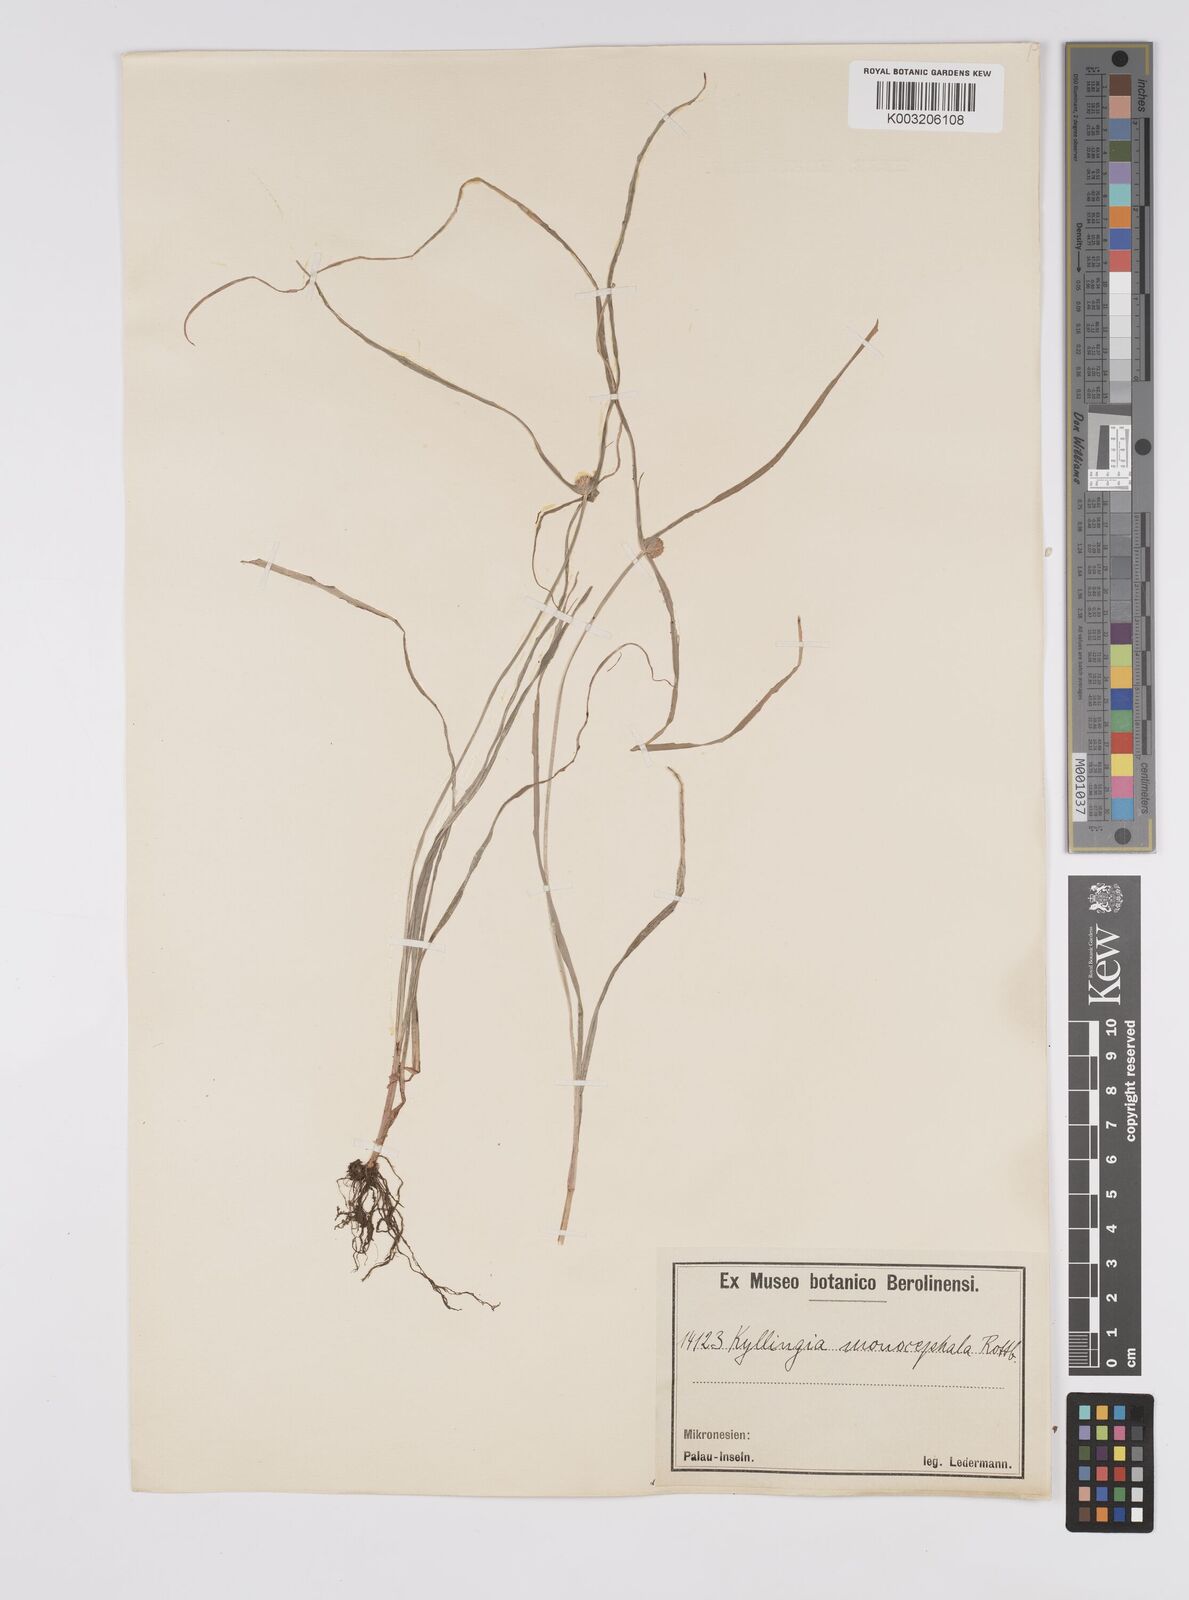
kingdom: Plantae
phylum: Tracheophyta
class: Liliopsida
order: Poales
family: Cyperaceae
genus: Cyperus
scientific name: Cyperus nemoralis
